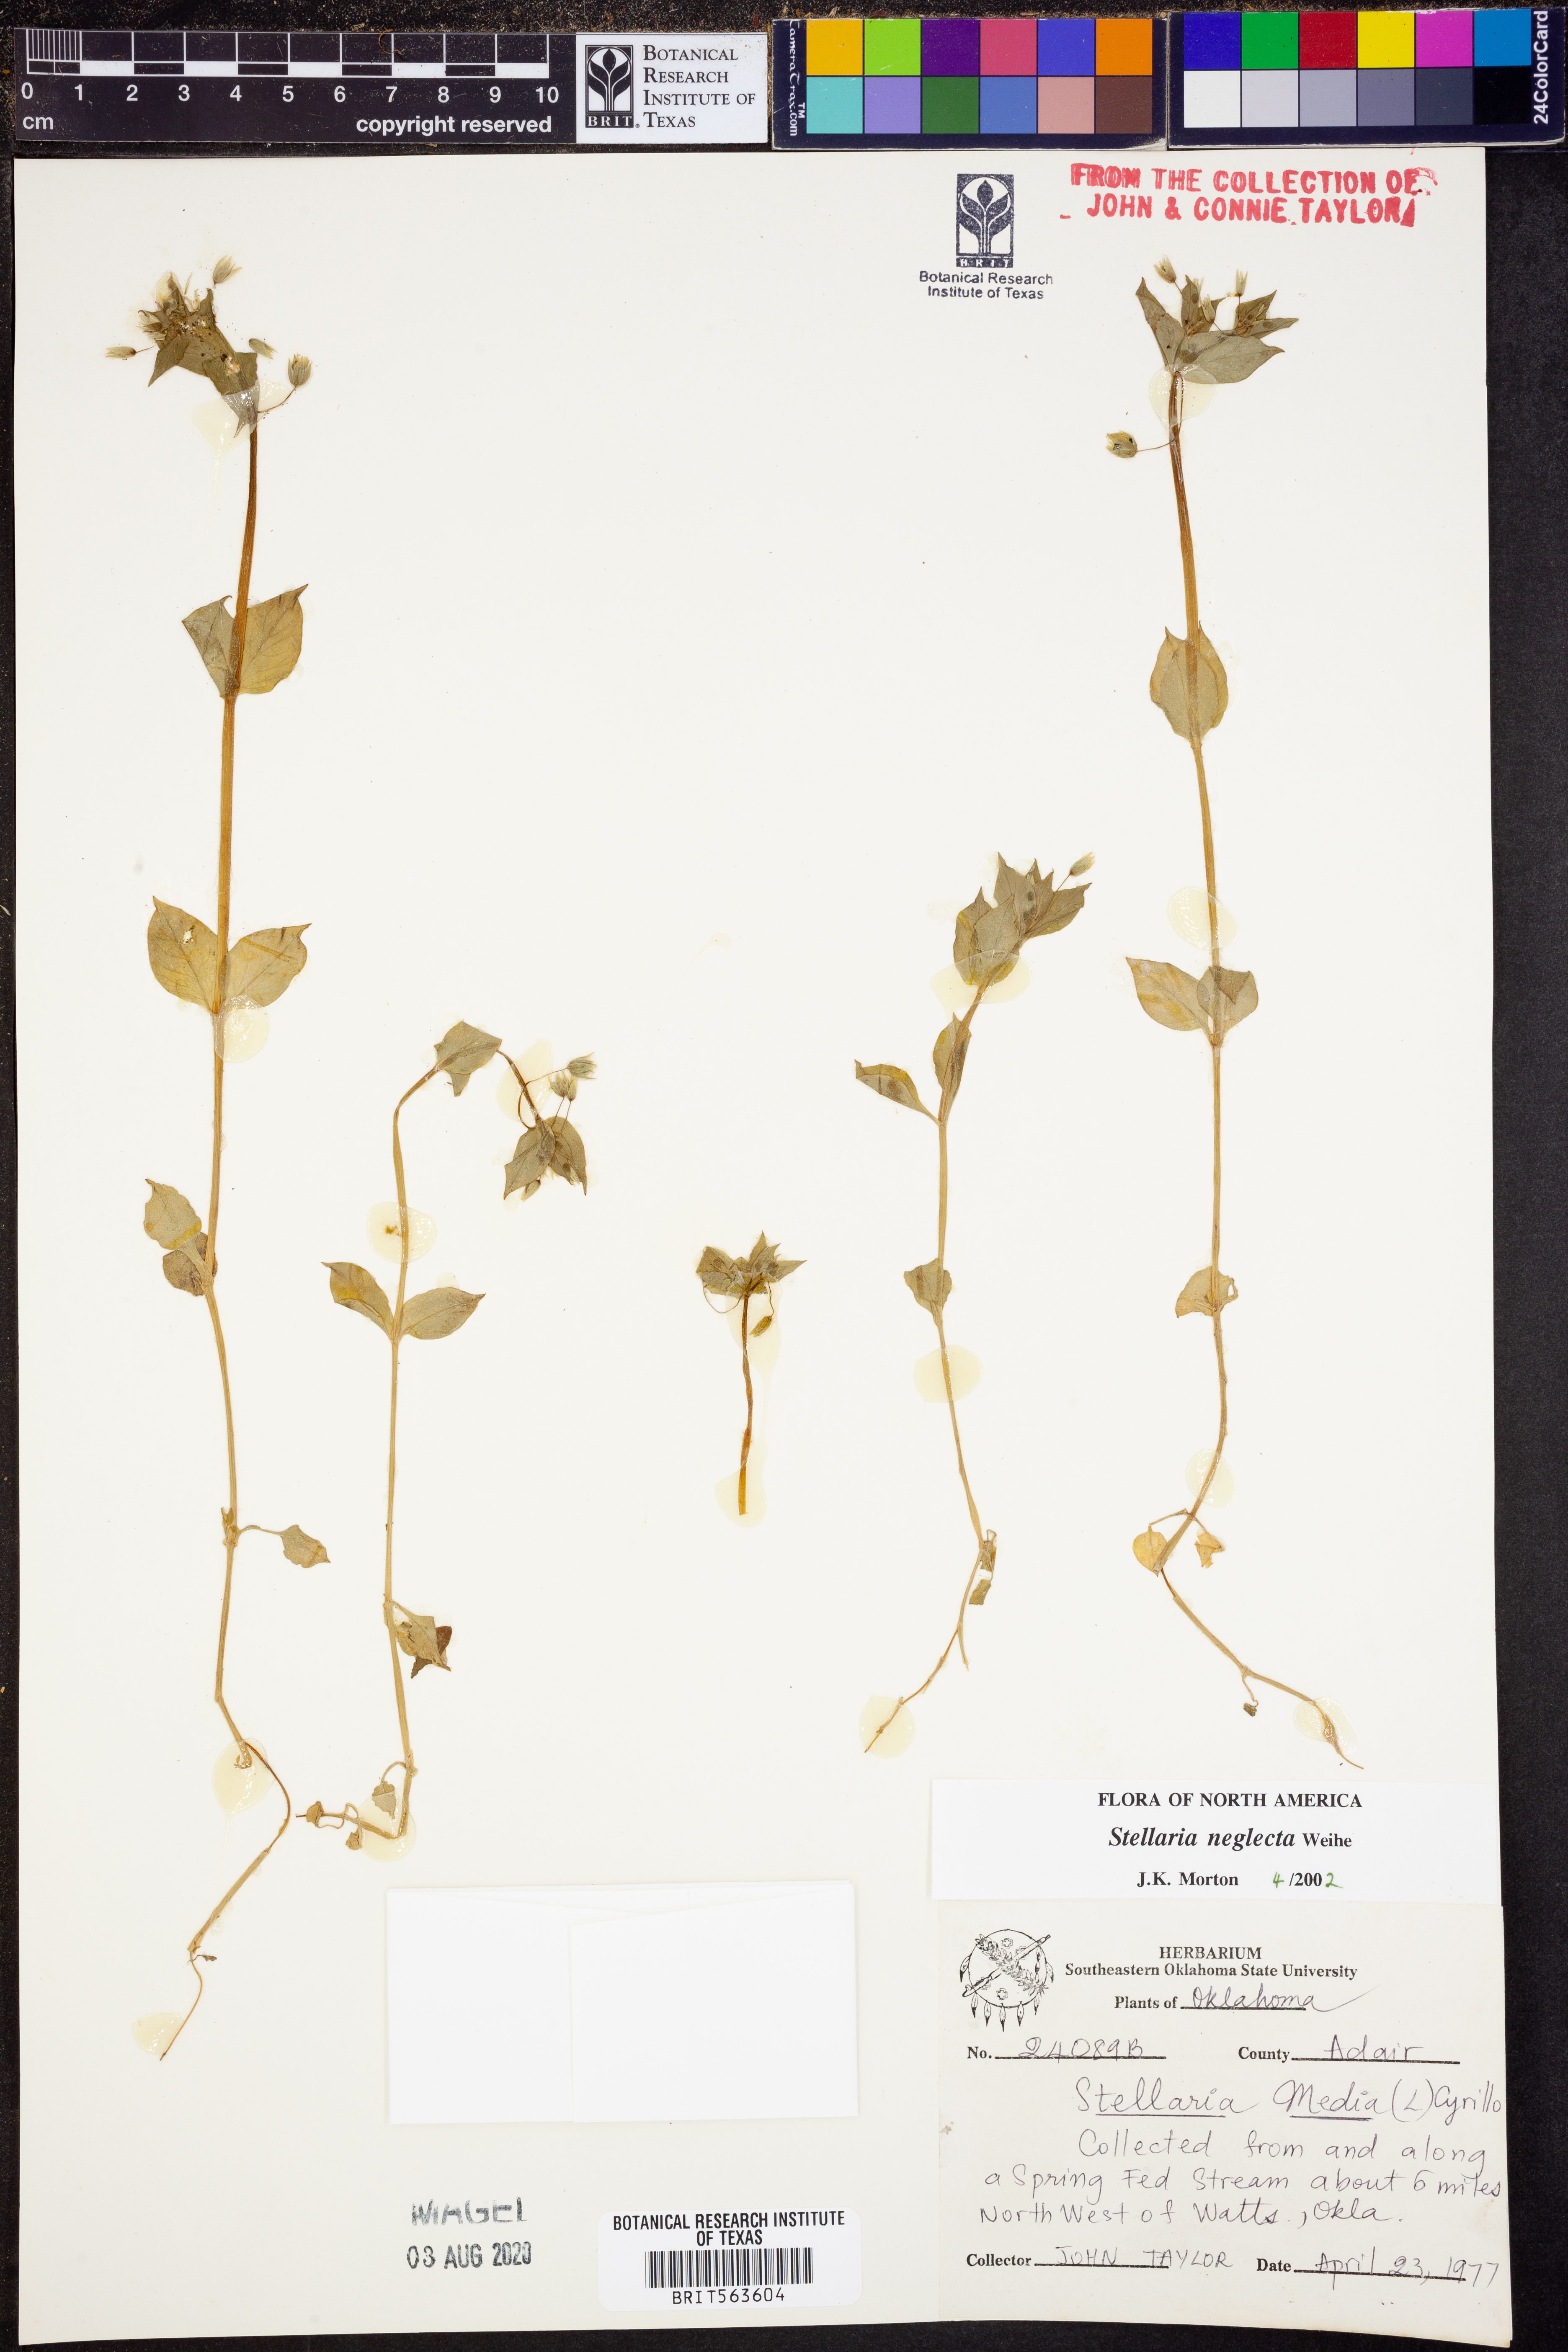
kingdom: Plantae
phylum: Tracheophyta
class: Magnoliopsida
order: Caryophyllales
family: Caryophyllaceae
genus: Stellaria
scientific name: Stellaria neglecta
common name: Greater chickweed
